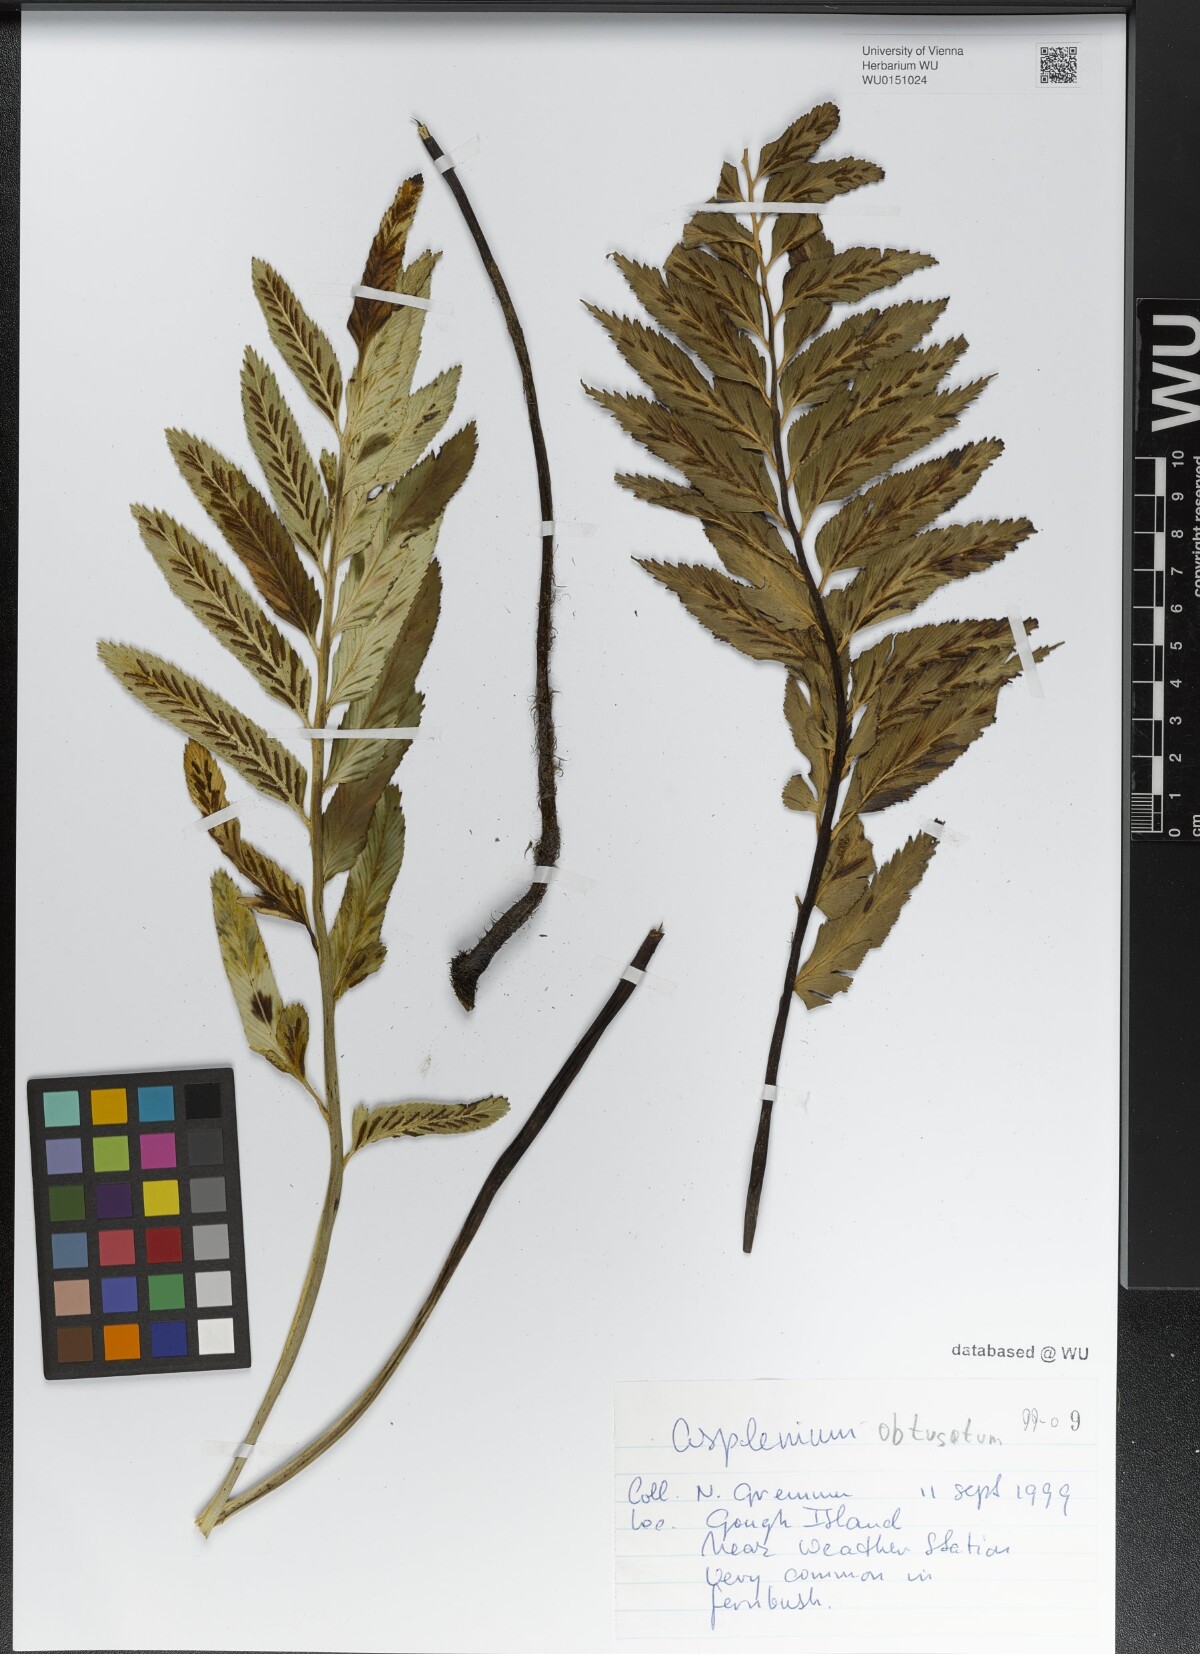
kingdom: Plantae
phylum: Tracheophyta
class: Polypodiopsida
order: Polypodiales
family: Aspleniaceae
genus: Asplenium
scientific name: Asplenium obtusatum
